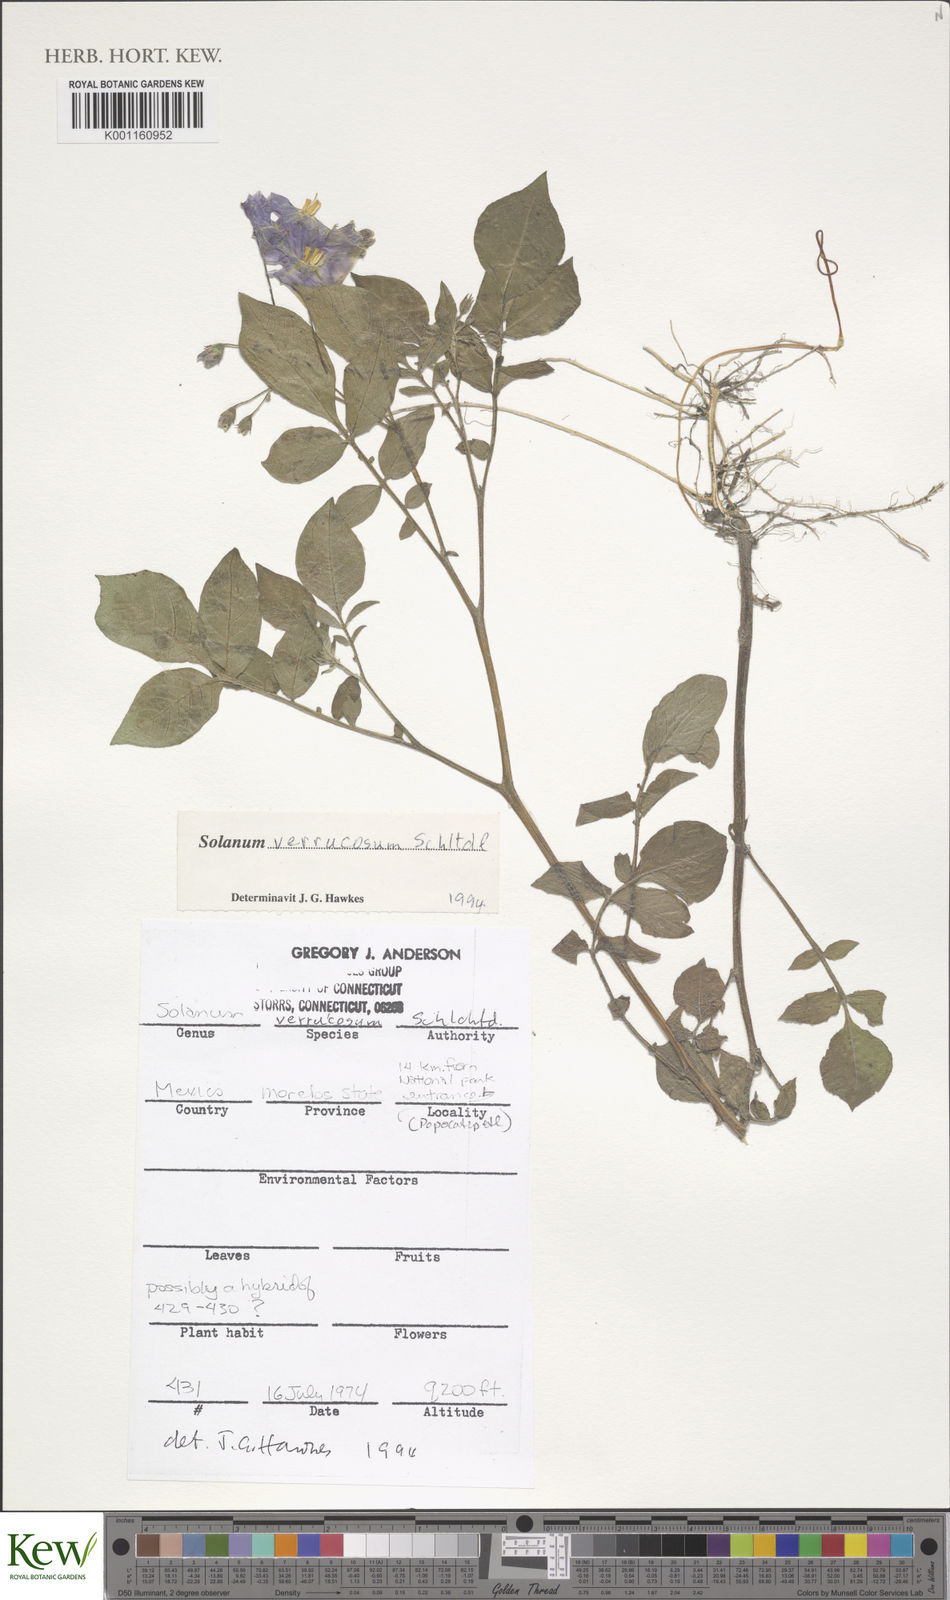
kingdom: Plantae
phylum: Tracheophyta
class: Magnoliopsida
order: Solanales
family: Solanaceae
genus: Solanum
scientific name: Solanum verrucosum
